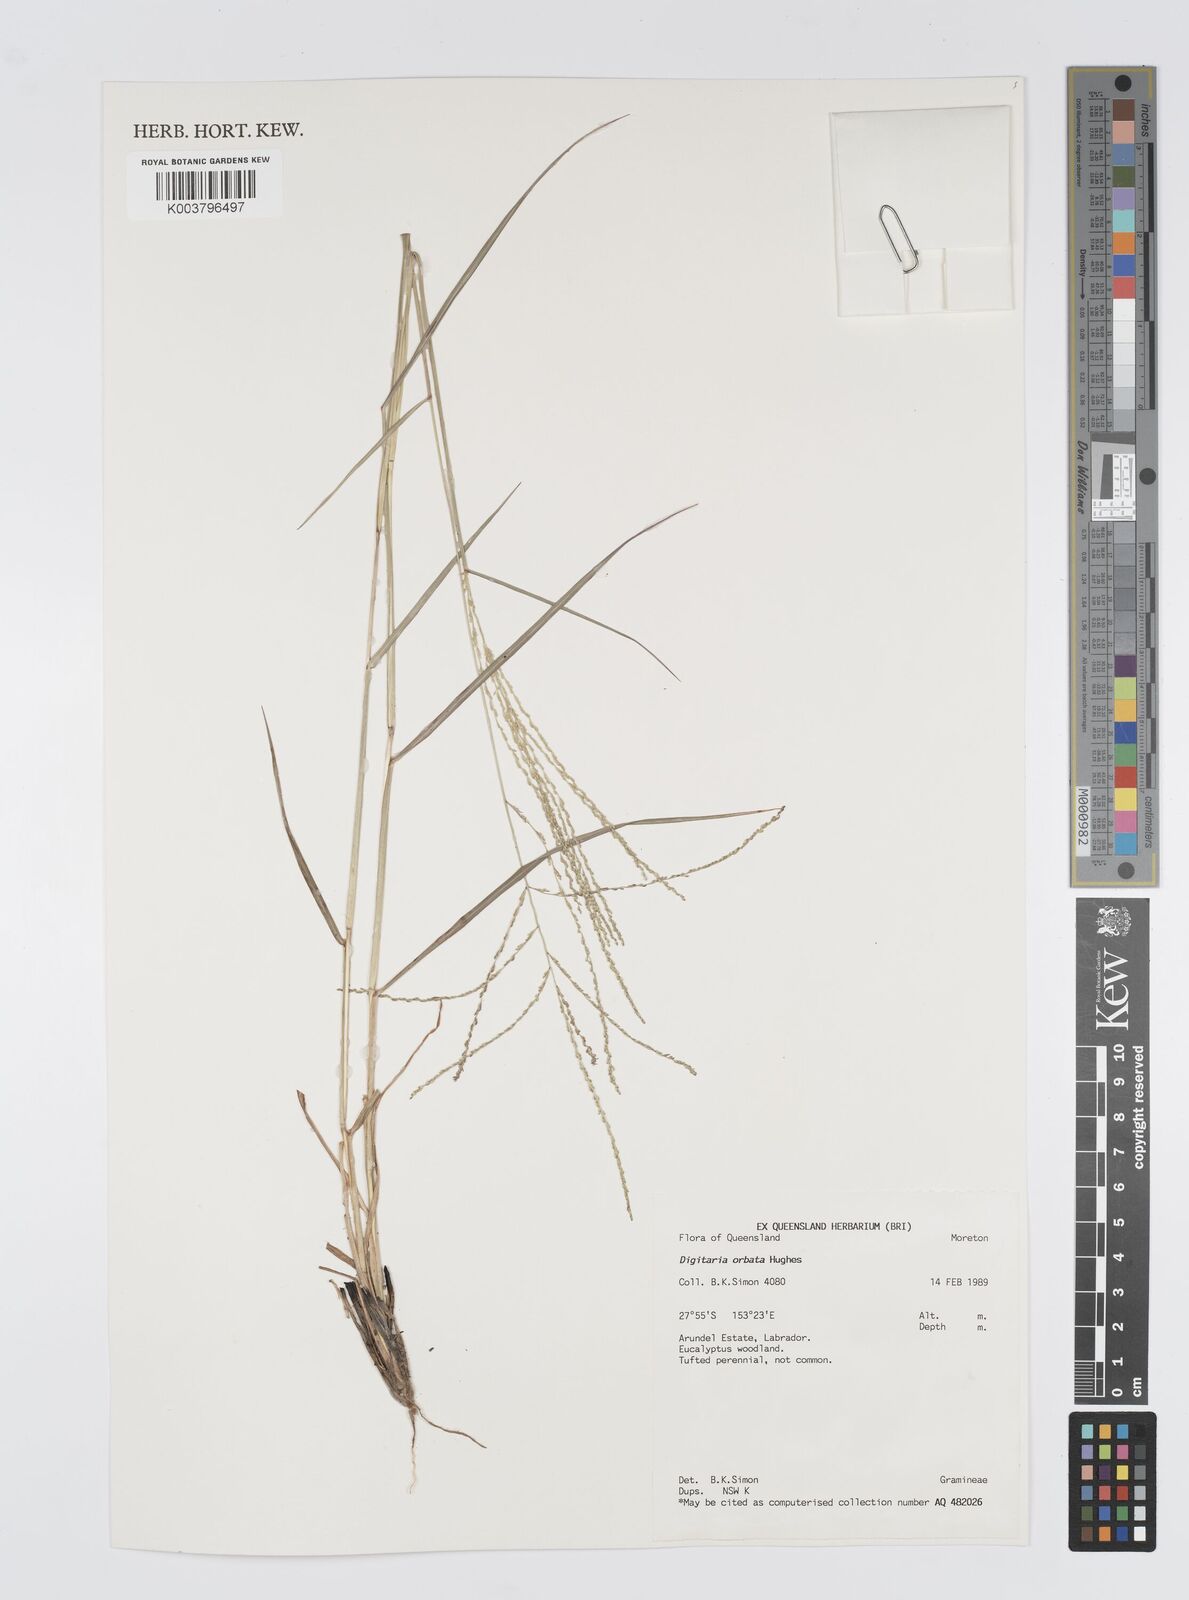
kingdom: Plantae
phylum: Tracheophyta
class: Liliopsida
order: Poales
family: Poaceae
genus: Digitaria
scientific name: Digitaria orbata
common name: Crabgrass
